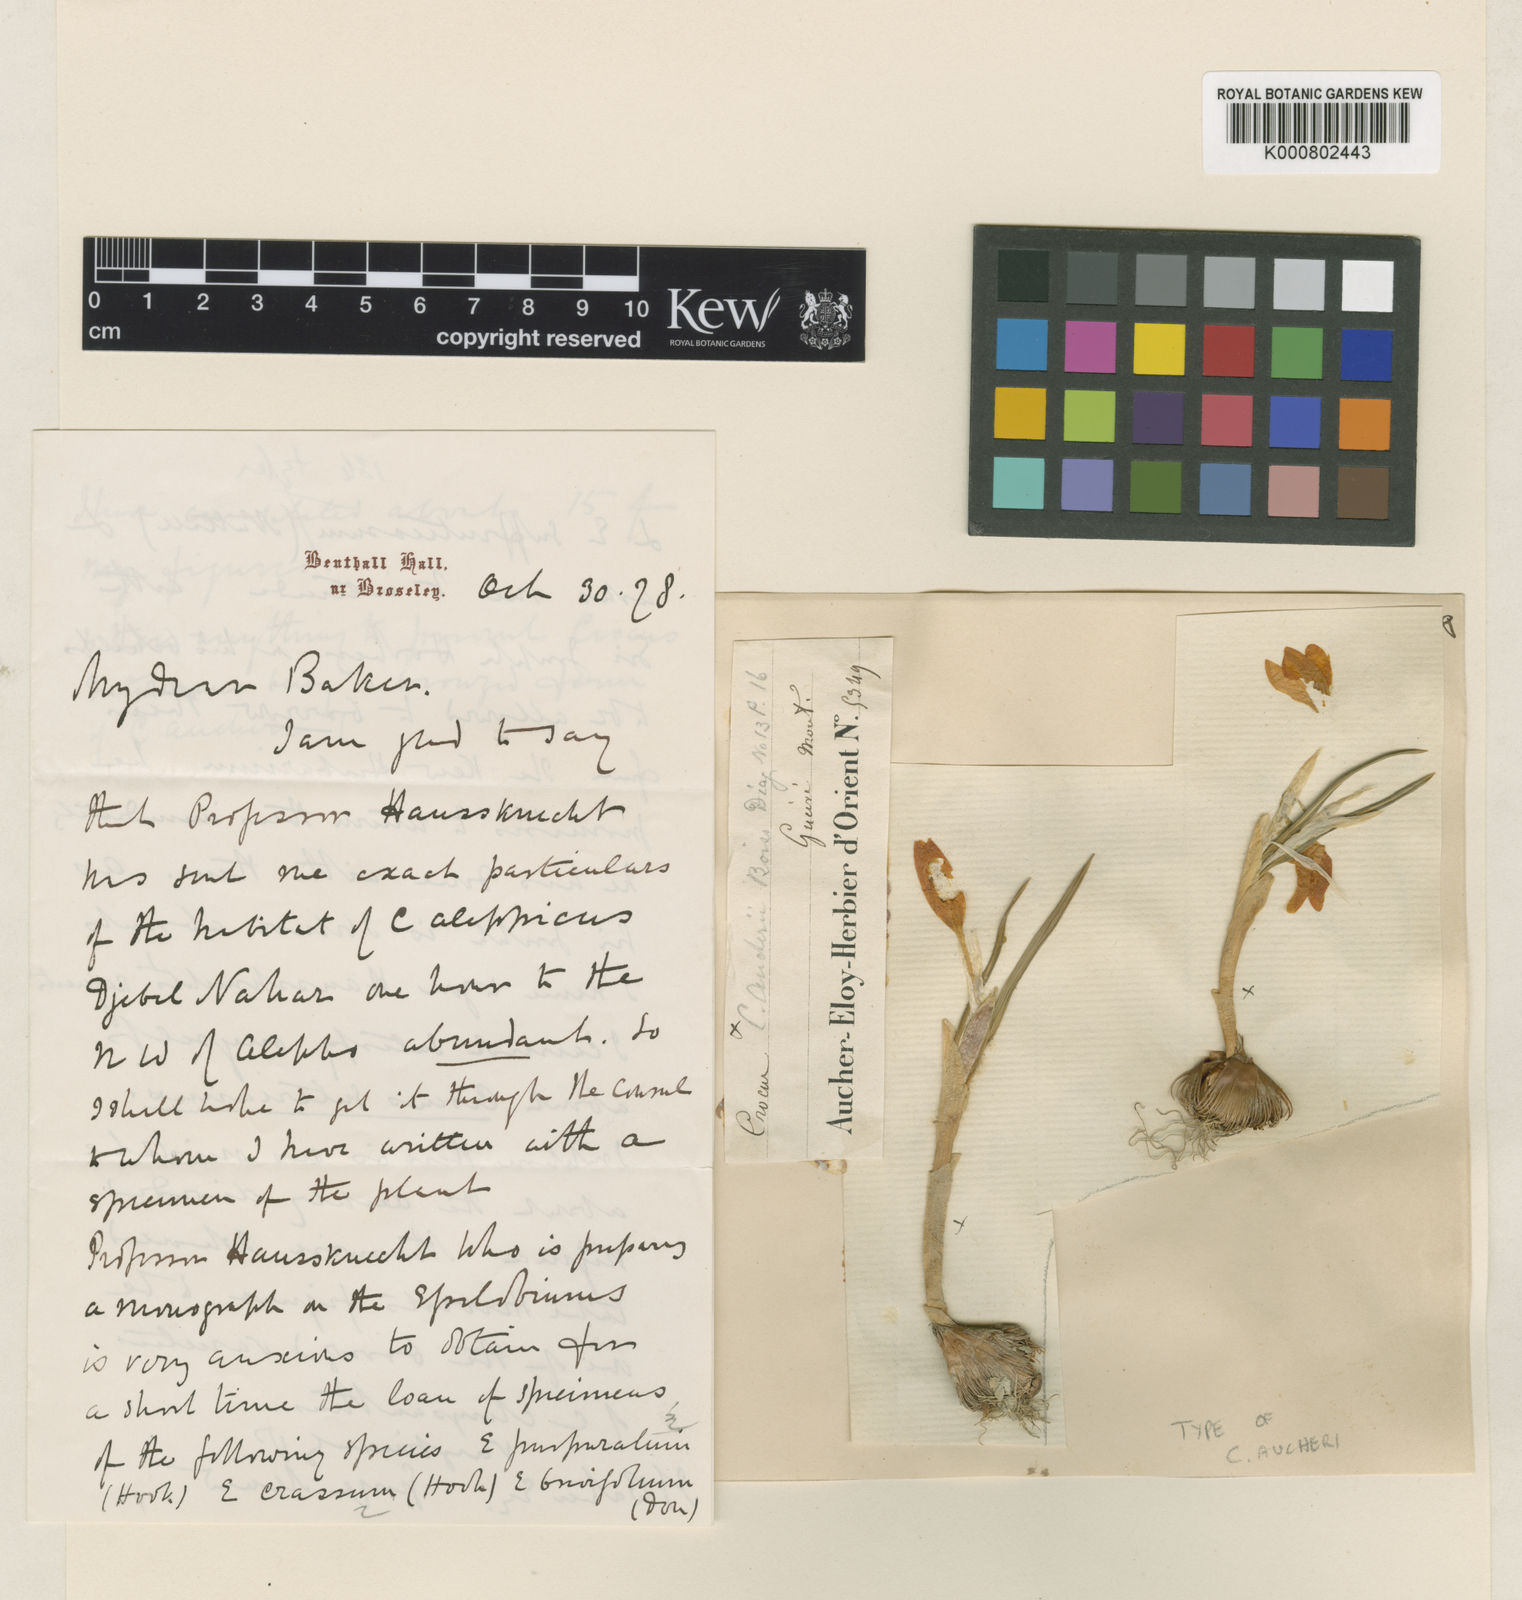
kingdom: Plantae
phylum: Tracheophyta
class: Liliopsida
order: Asparagales
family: Iridaceae
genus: Crocus
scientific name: Crocus olivieri
